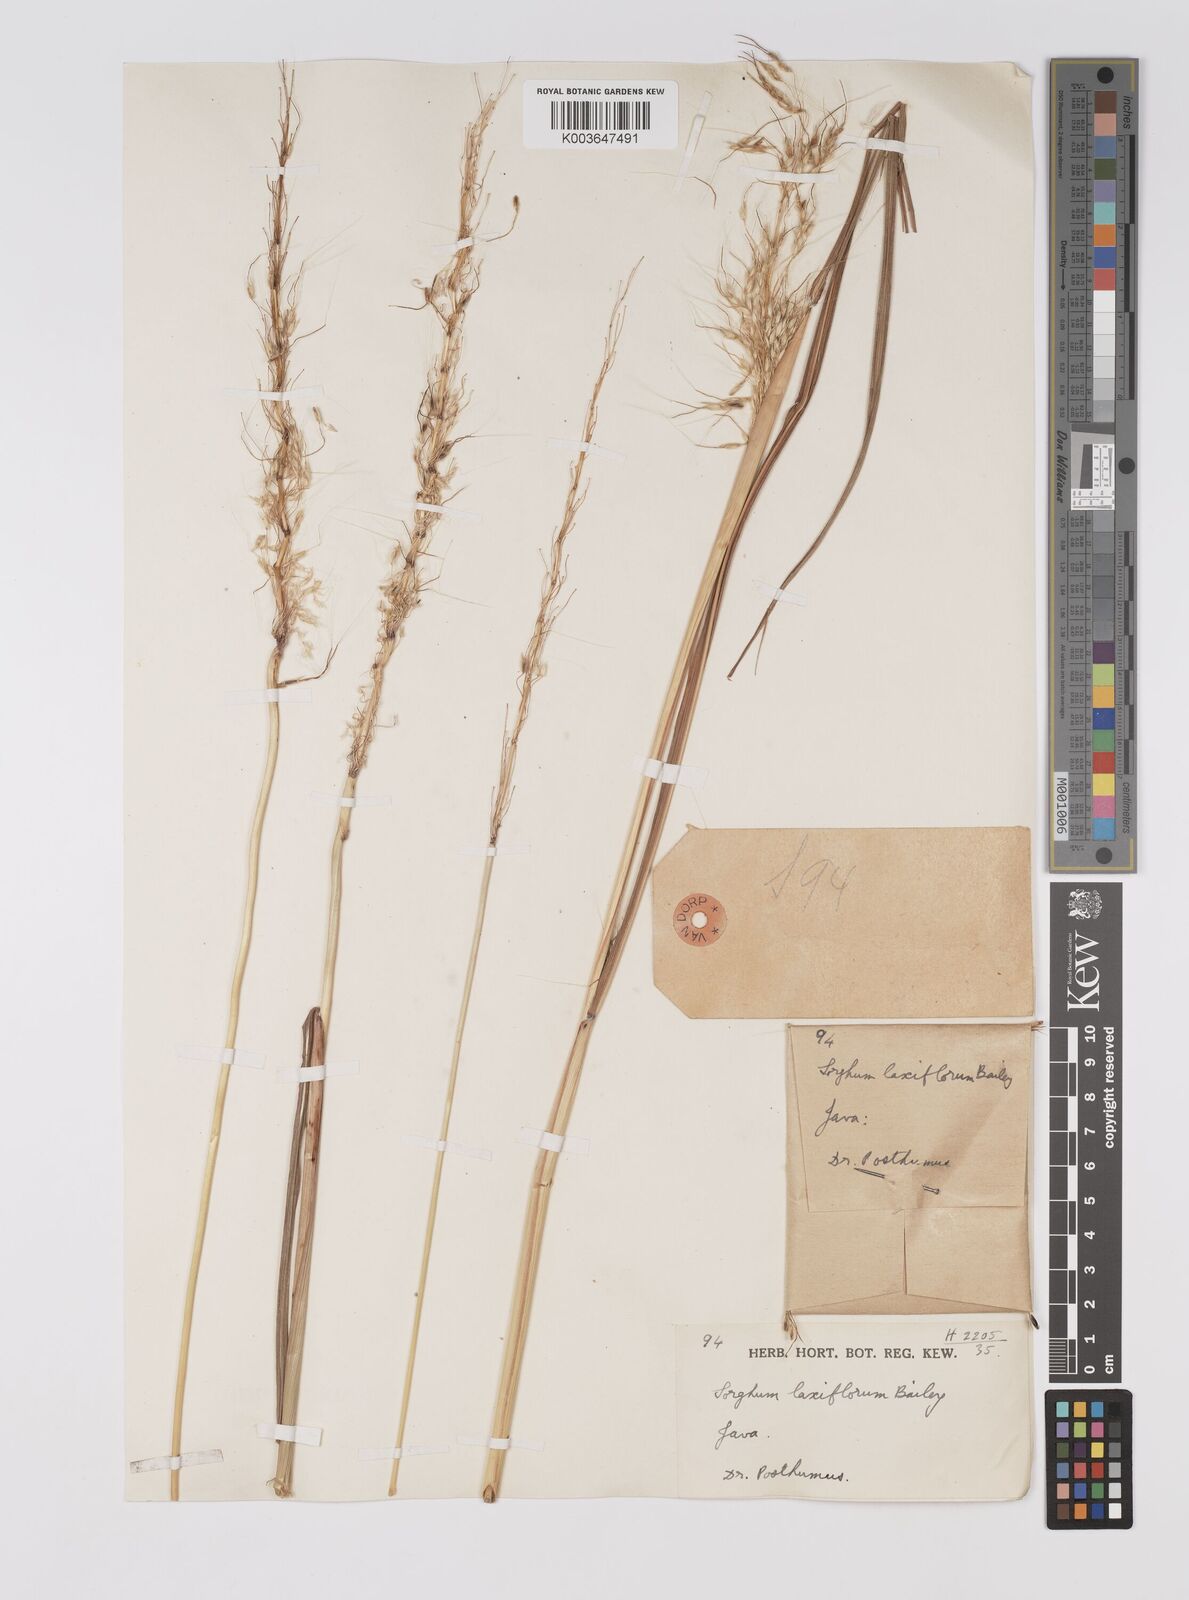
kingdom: Plantae
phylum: Tracheophyta
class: Liliopsida
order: Poales
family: Poaceae
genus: Sorghum
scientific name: Sorghum laxiflorum
